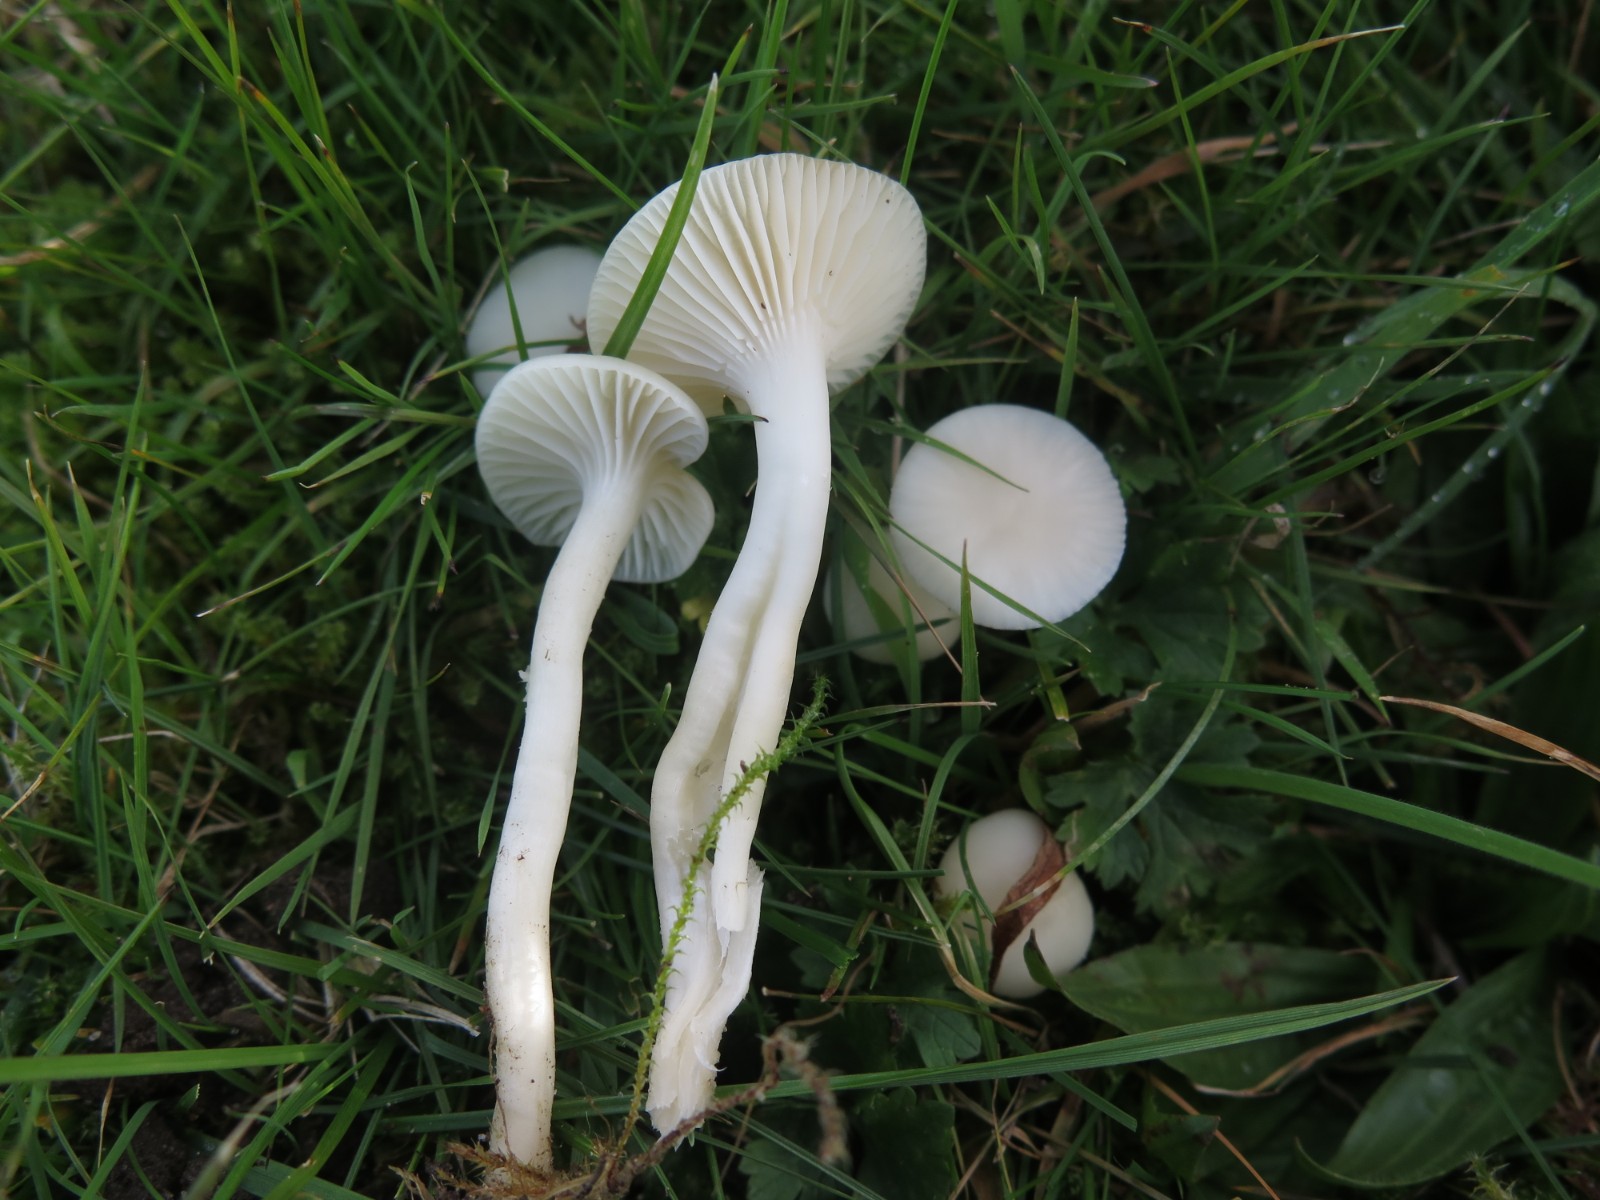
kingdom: Fungi
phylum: Basidiomycota
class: Agaricomycetes
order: Agaricales
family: Hygrophoraceae
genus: Cuphophyllus
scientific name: Cuphophyllus virgineus
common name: snehvid vokshat
